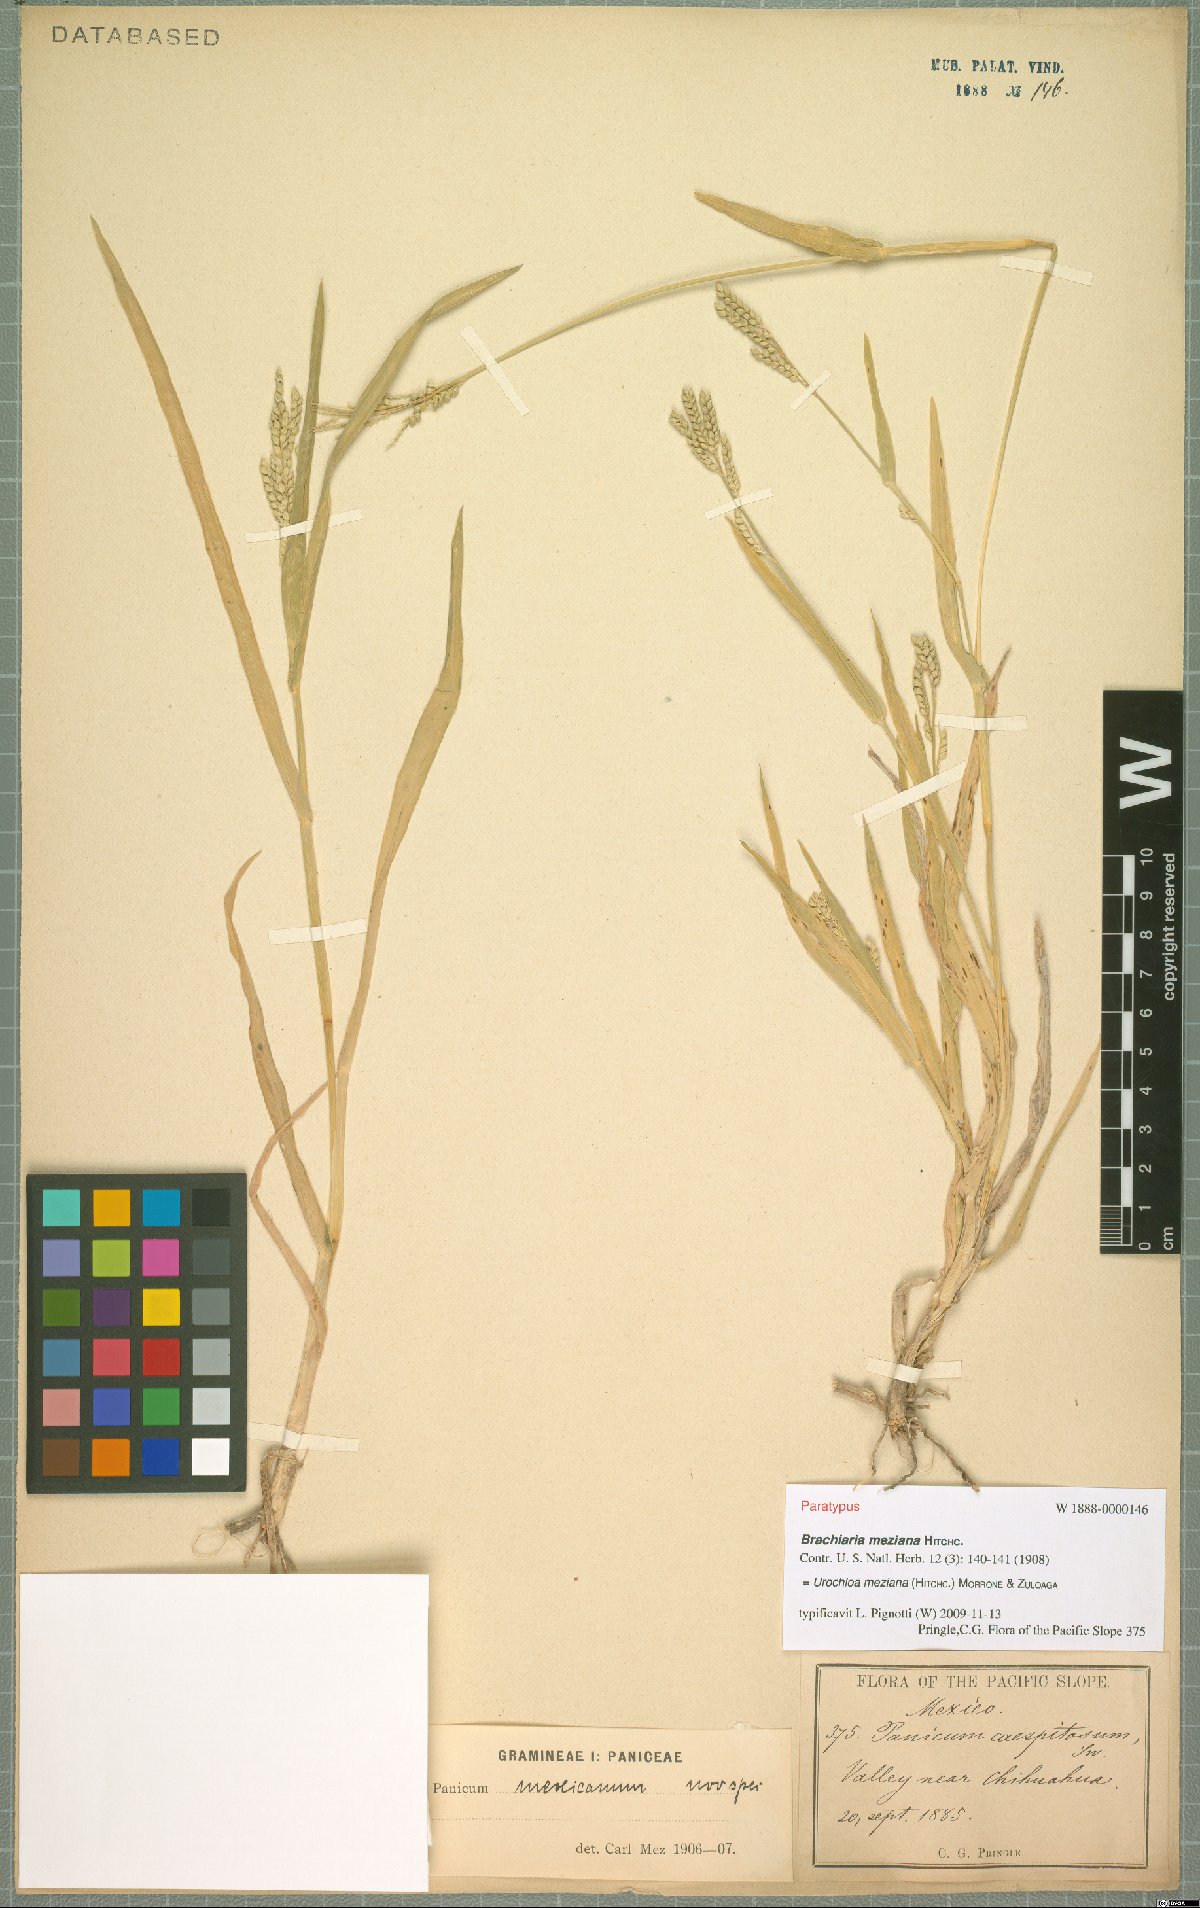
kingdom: Plantae
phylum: Tracheophyta
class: Liliopsida
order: Poales
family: Poaceae
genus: Urochloa
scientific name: Urochloa meziana
